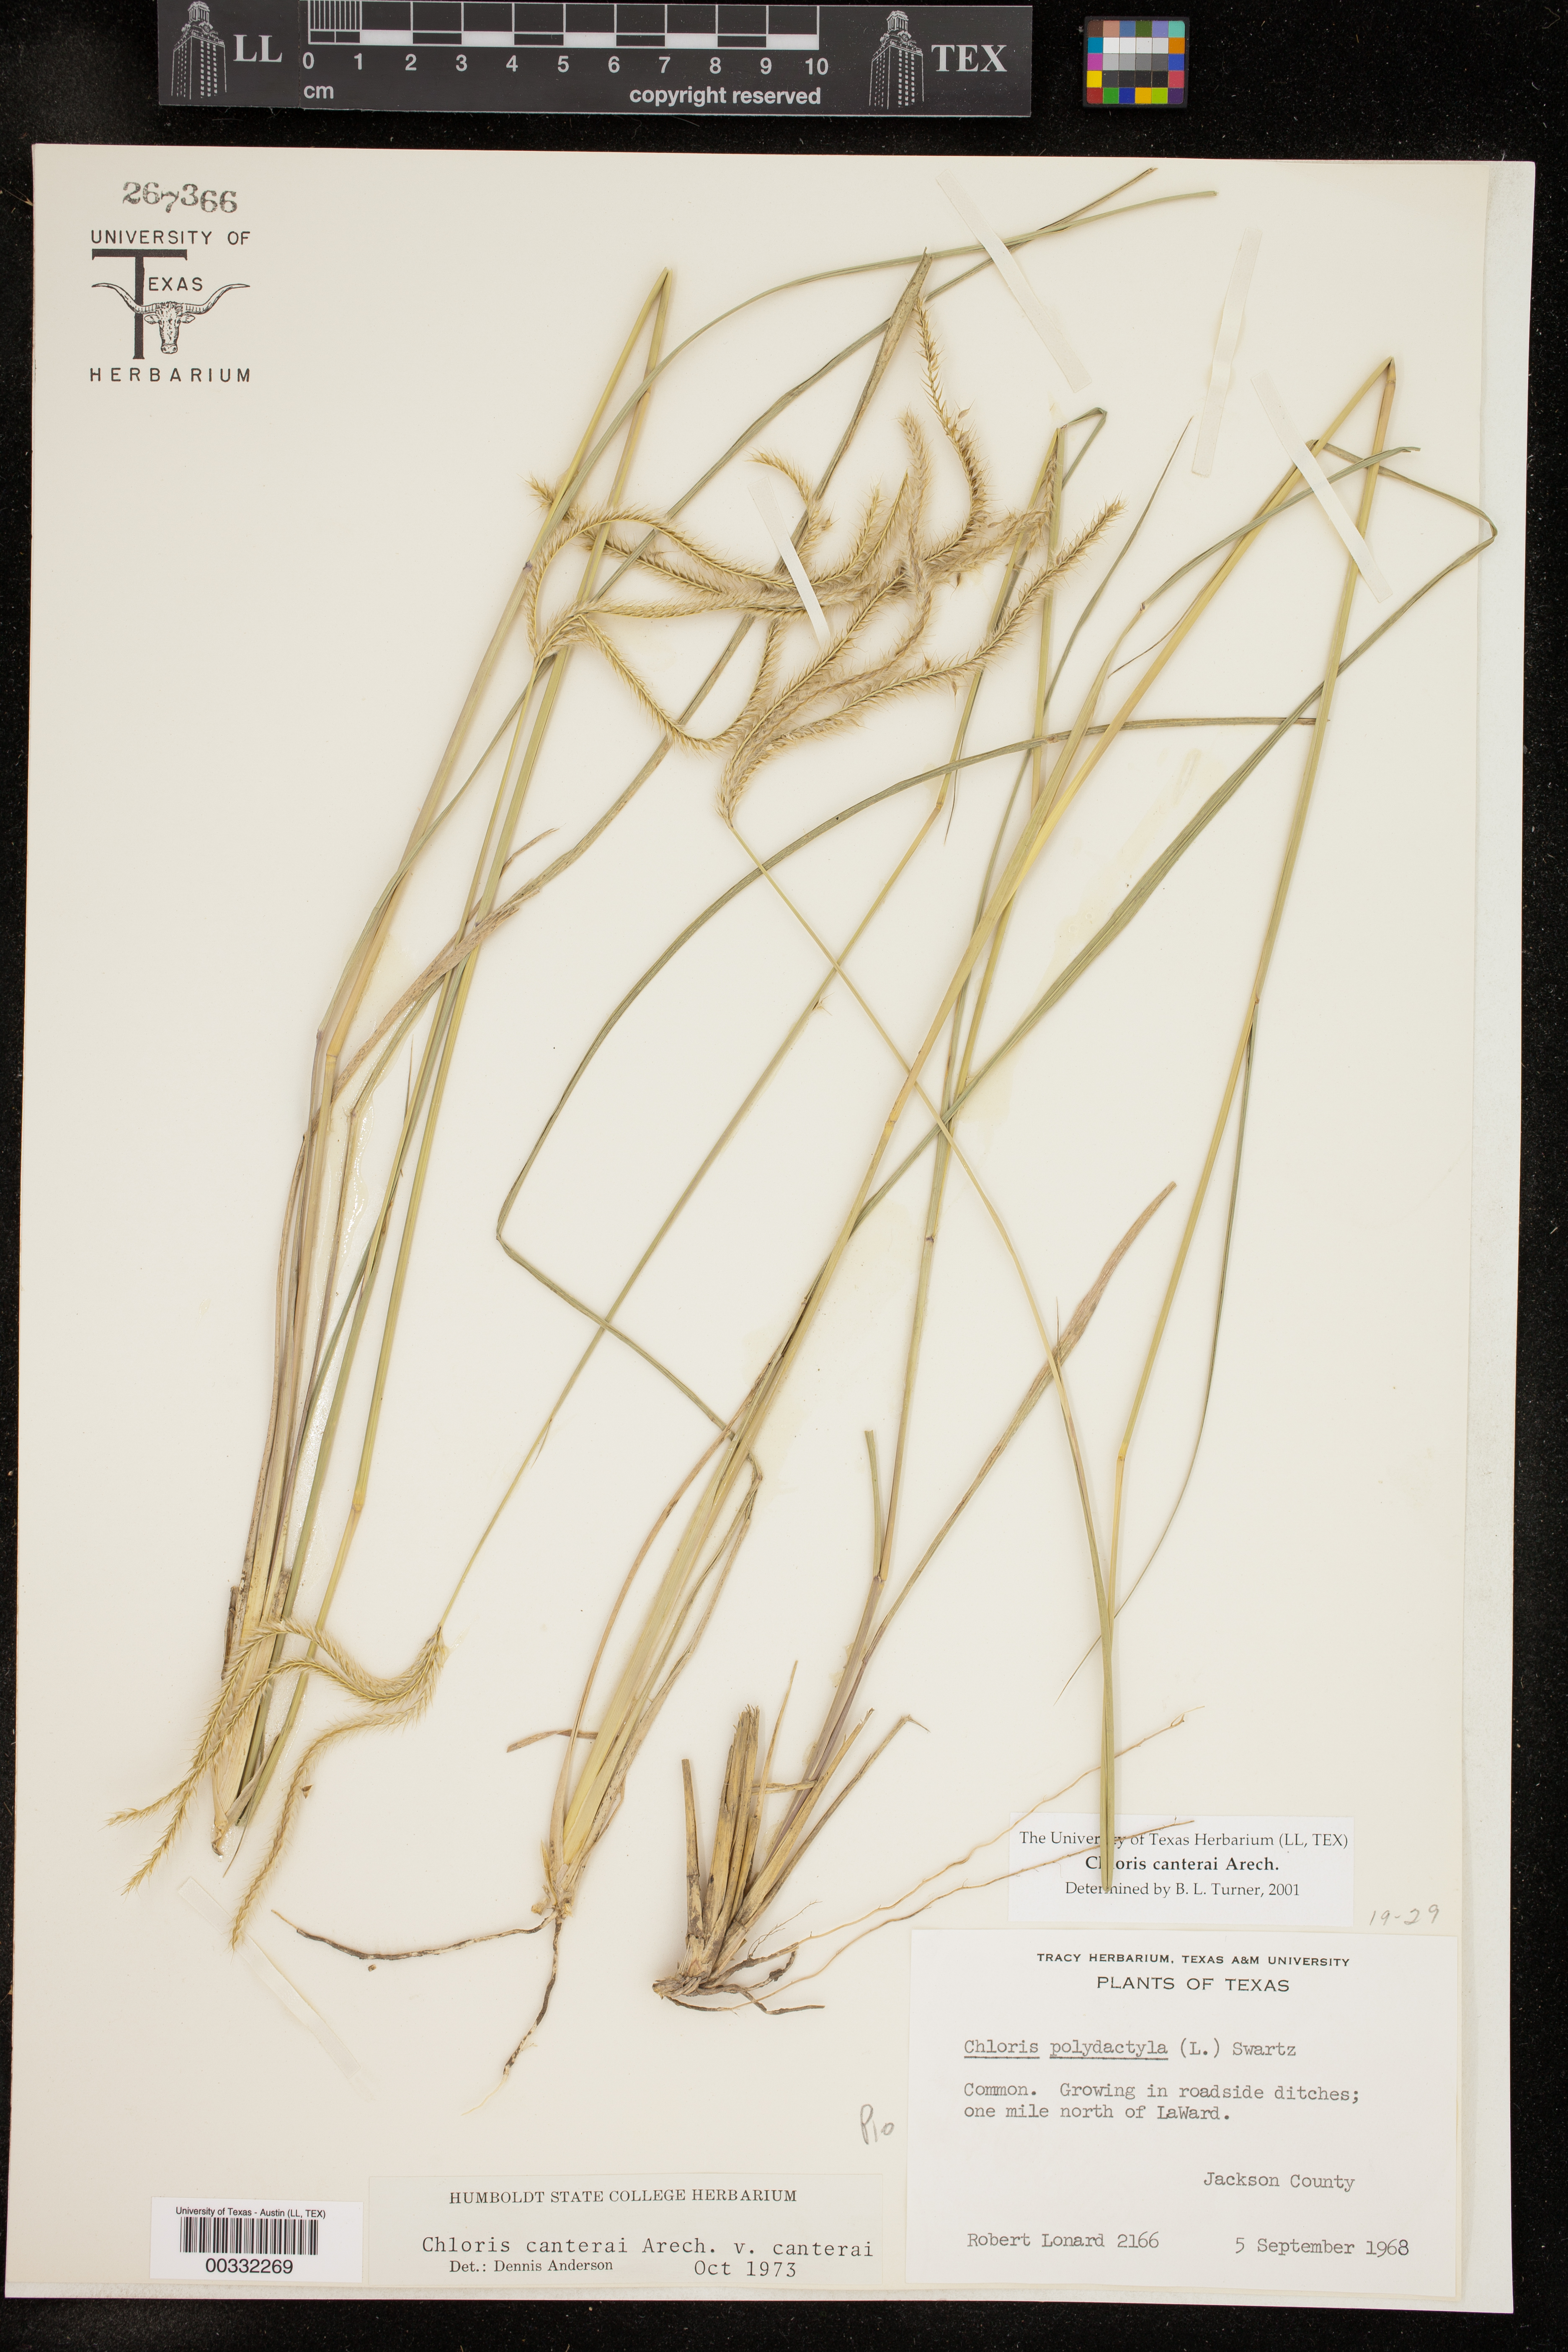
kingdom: Plantae
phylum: Tracheophyta
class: Liliopsida
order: Poales
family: Poaceae
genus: Stapfochloa
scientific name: Stapfochloa canterae
